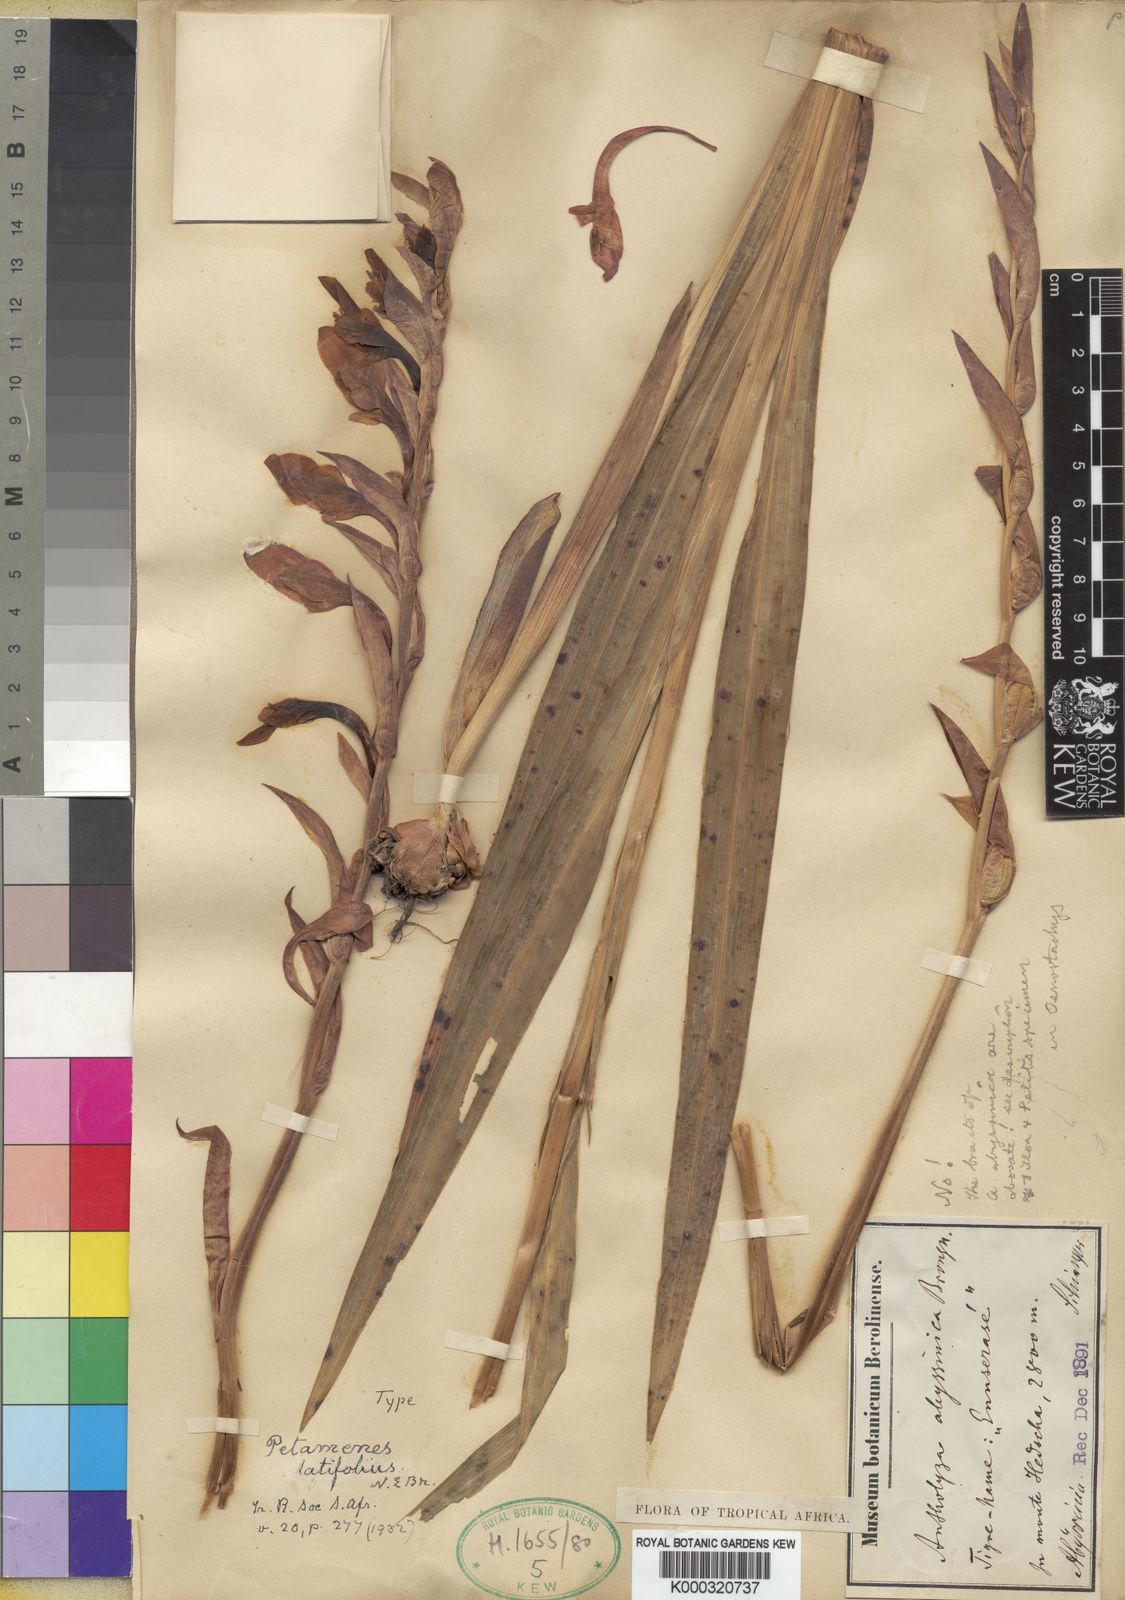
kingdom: Plantae
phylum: Tracheophyta
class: Liliopsida
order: Asparagales
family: Iridaceae
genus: Gladiolus
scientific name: Gladiolus
